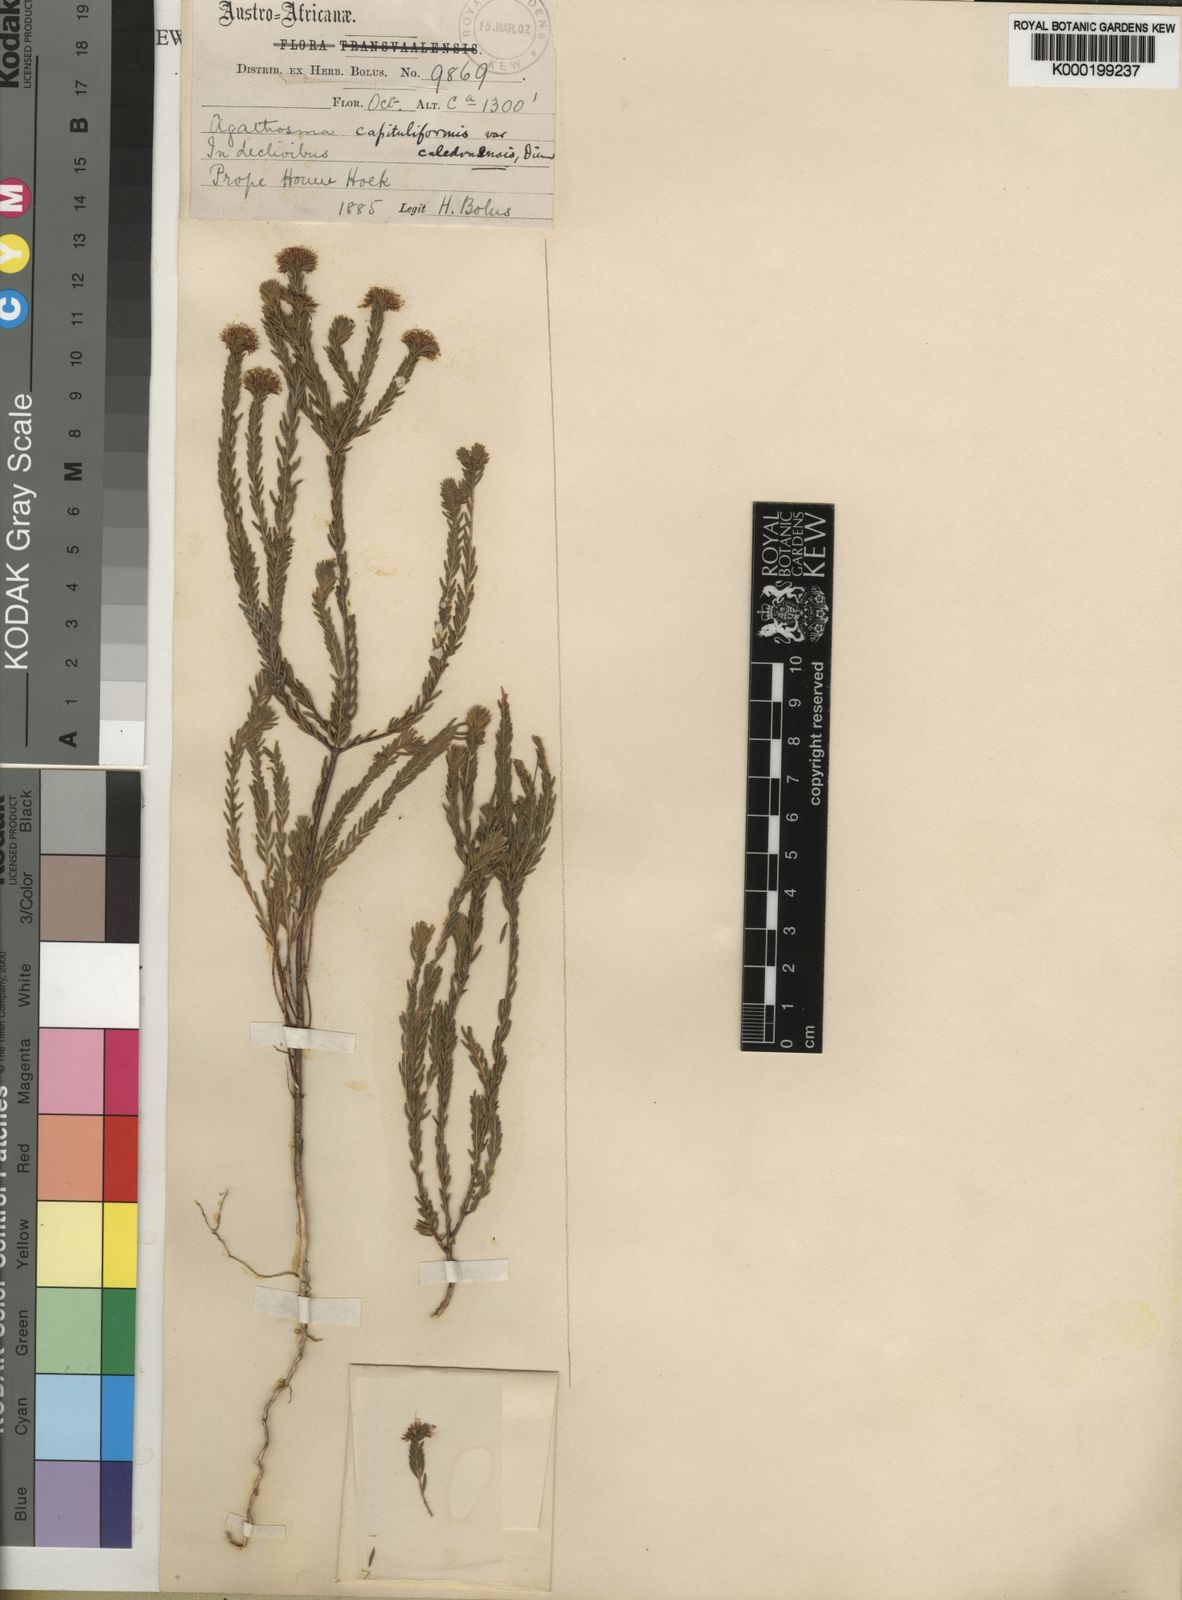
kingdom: Plantae
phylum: Tracheophyta
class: Magnoliopsida
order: Sapindales
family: Rutaceae
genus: Agathosma
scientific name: Agathosma bifida
